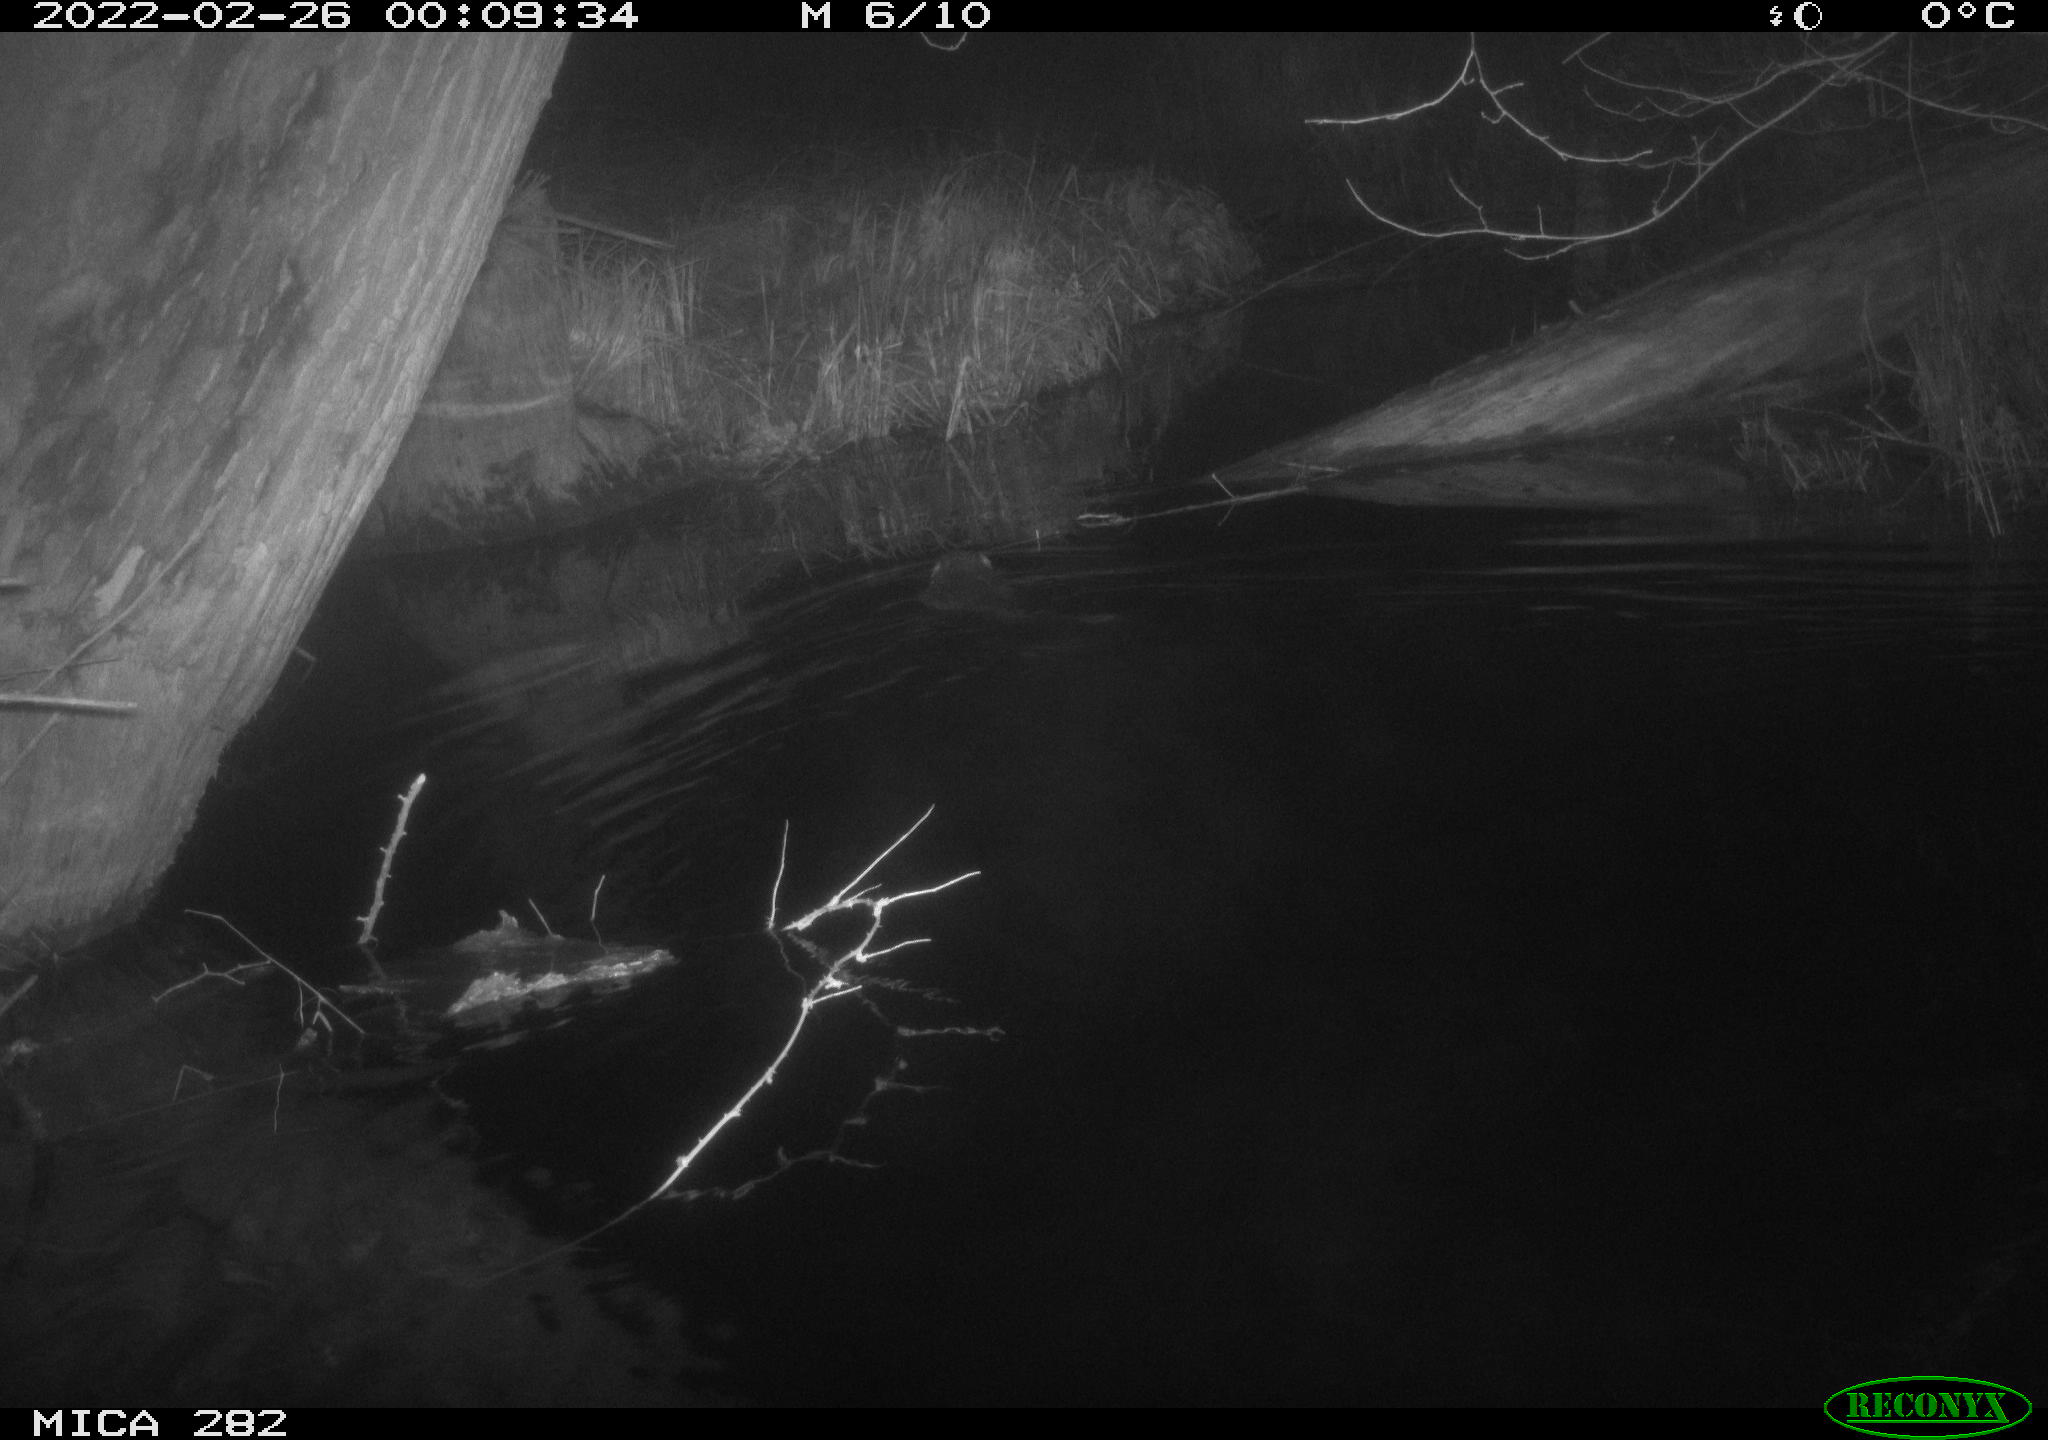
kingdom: Animalia
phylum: Chordata
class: Mammalia
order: Rodentia
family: Castoridae
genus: Castor
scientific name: Castor fiber
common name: Eurasian beaver
